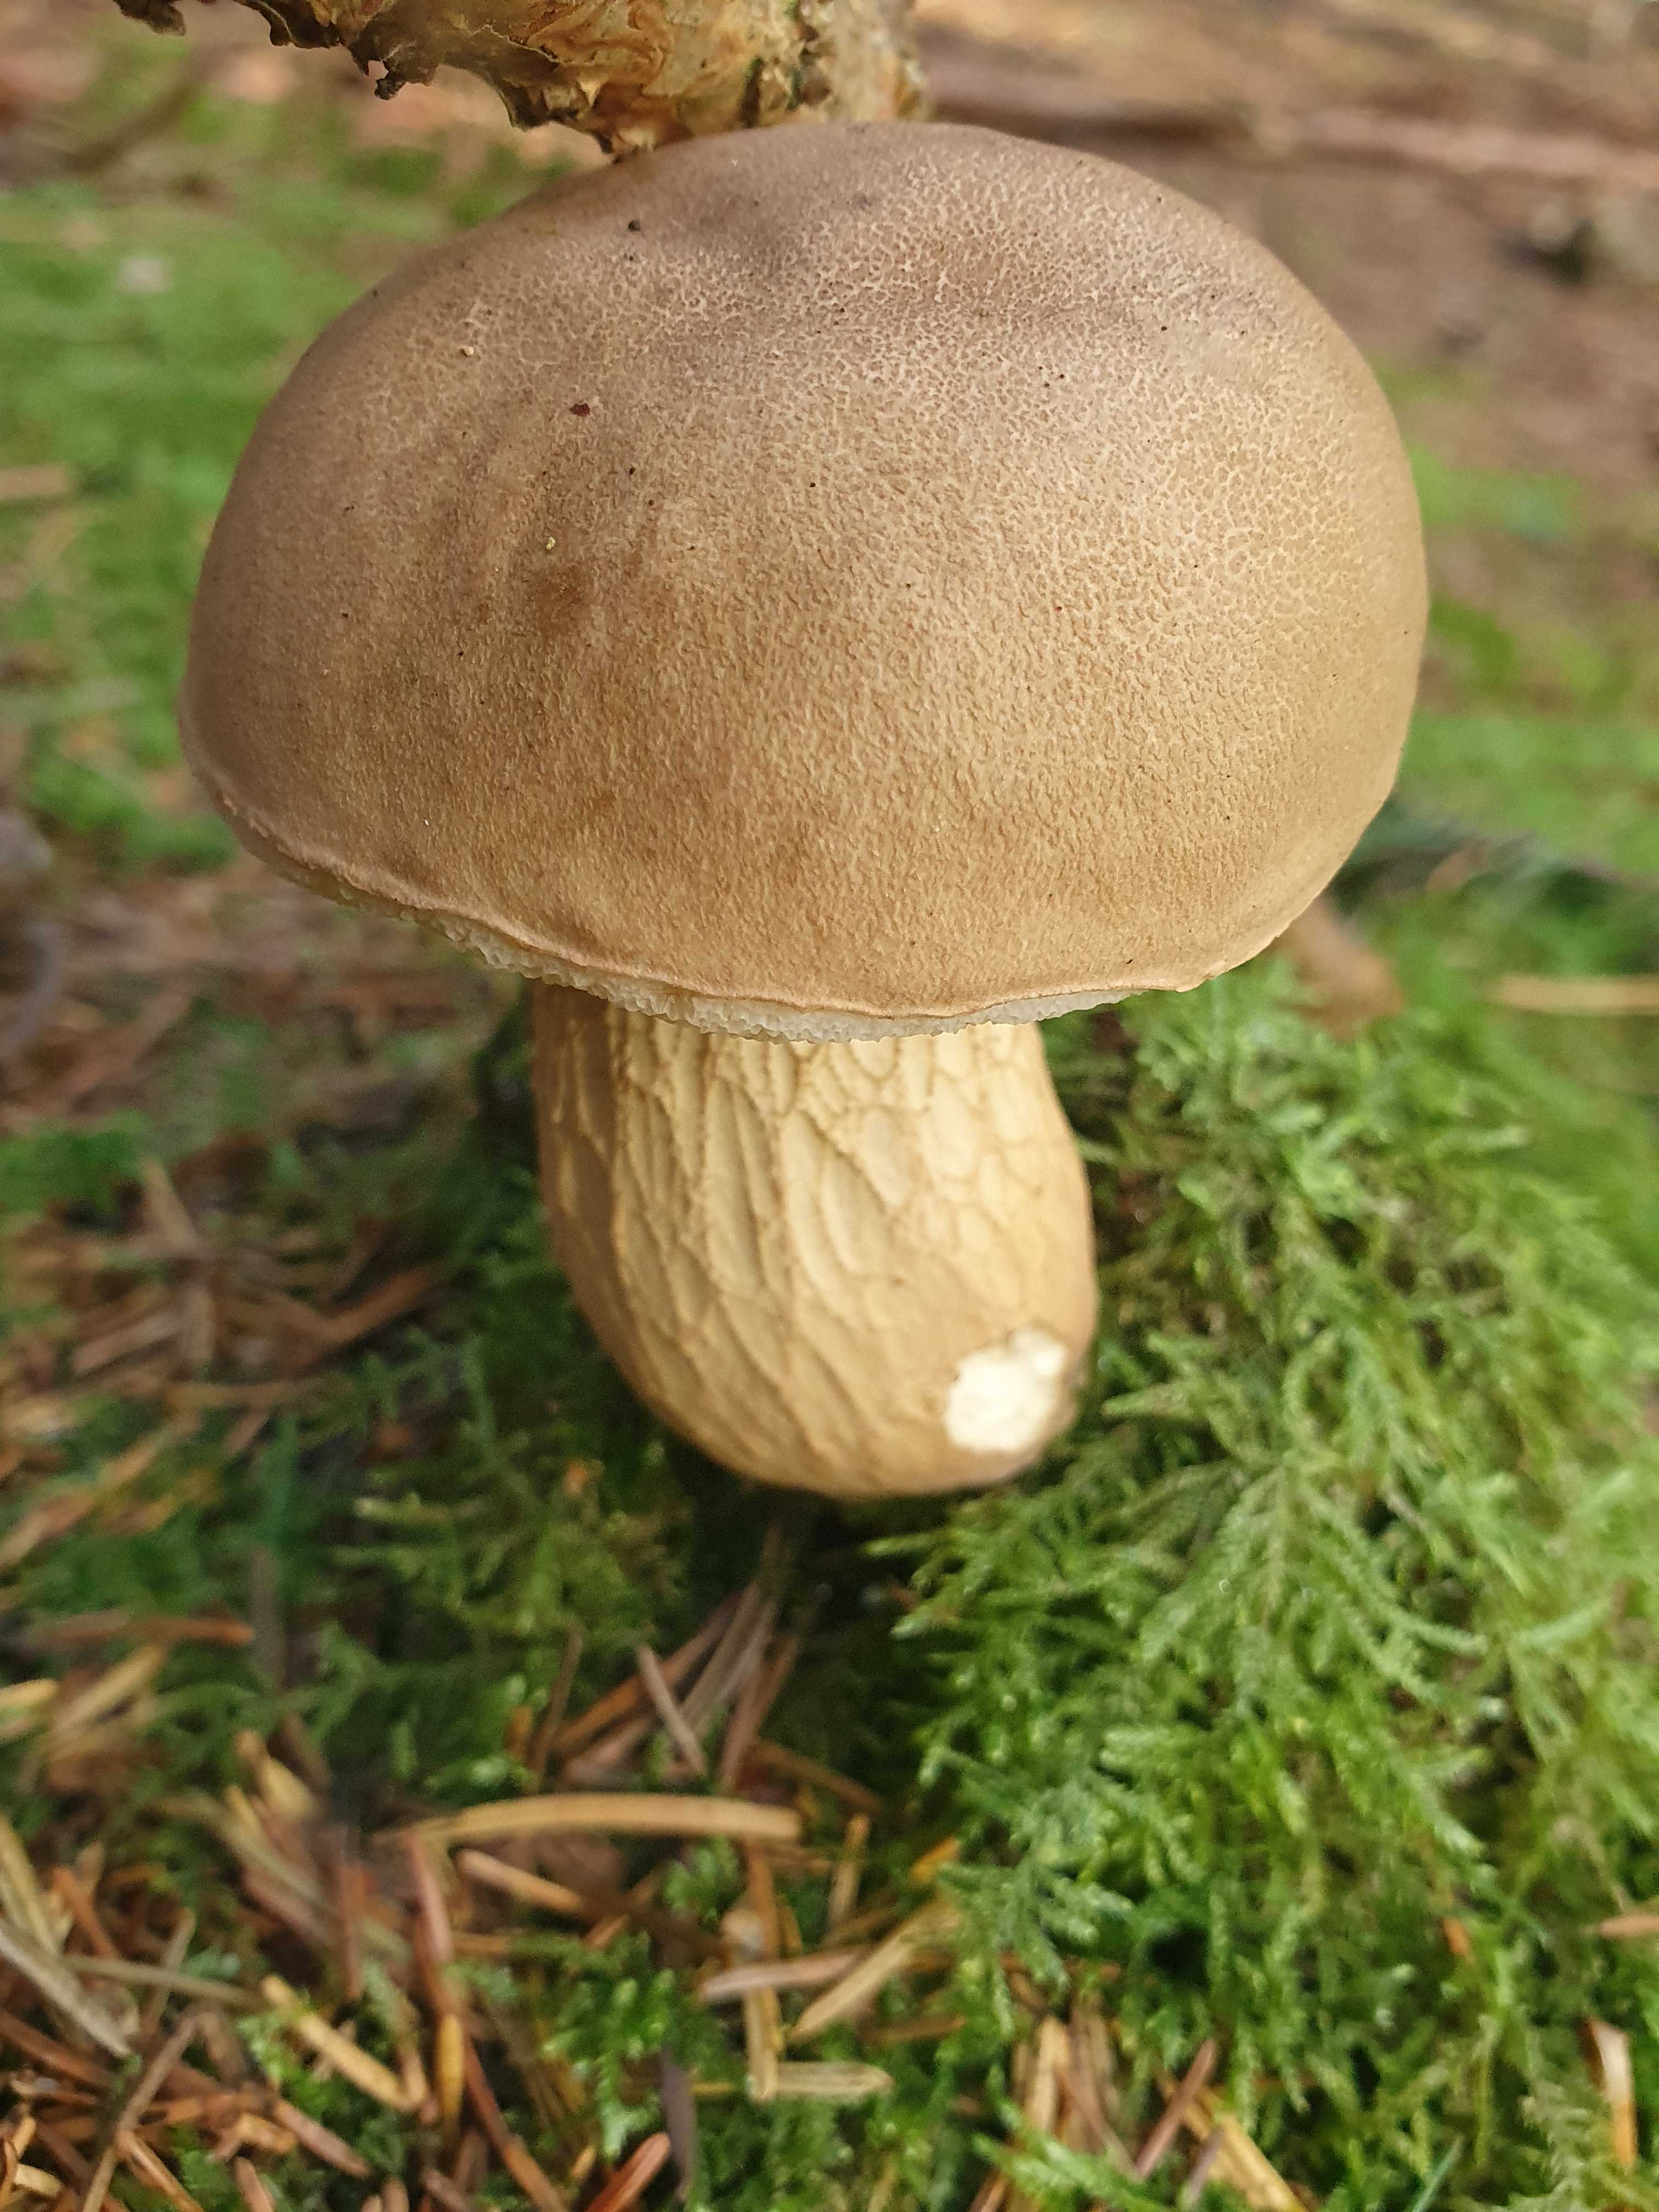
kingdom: Fungi
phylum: Basidiomycota
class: Agaricomycetes
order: Boletales
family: Boletaceae
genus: Tylopilus
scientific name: Tylopilus felleus
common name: galderørhat
